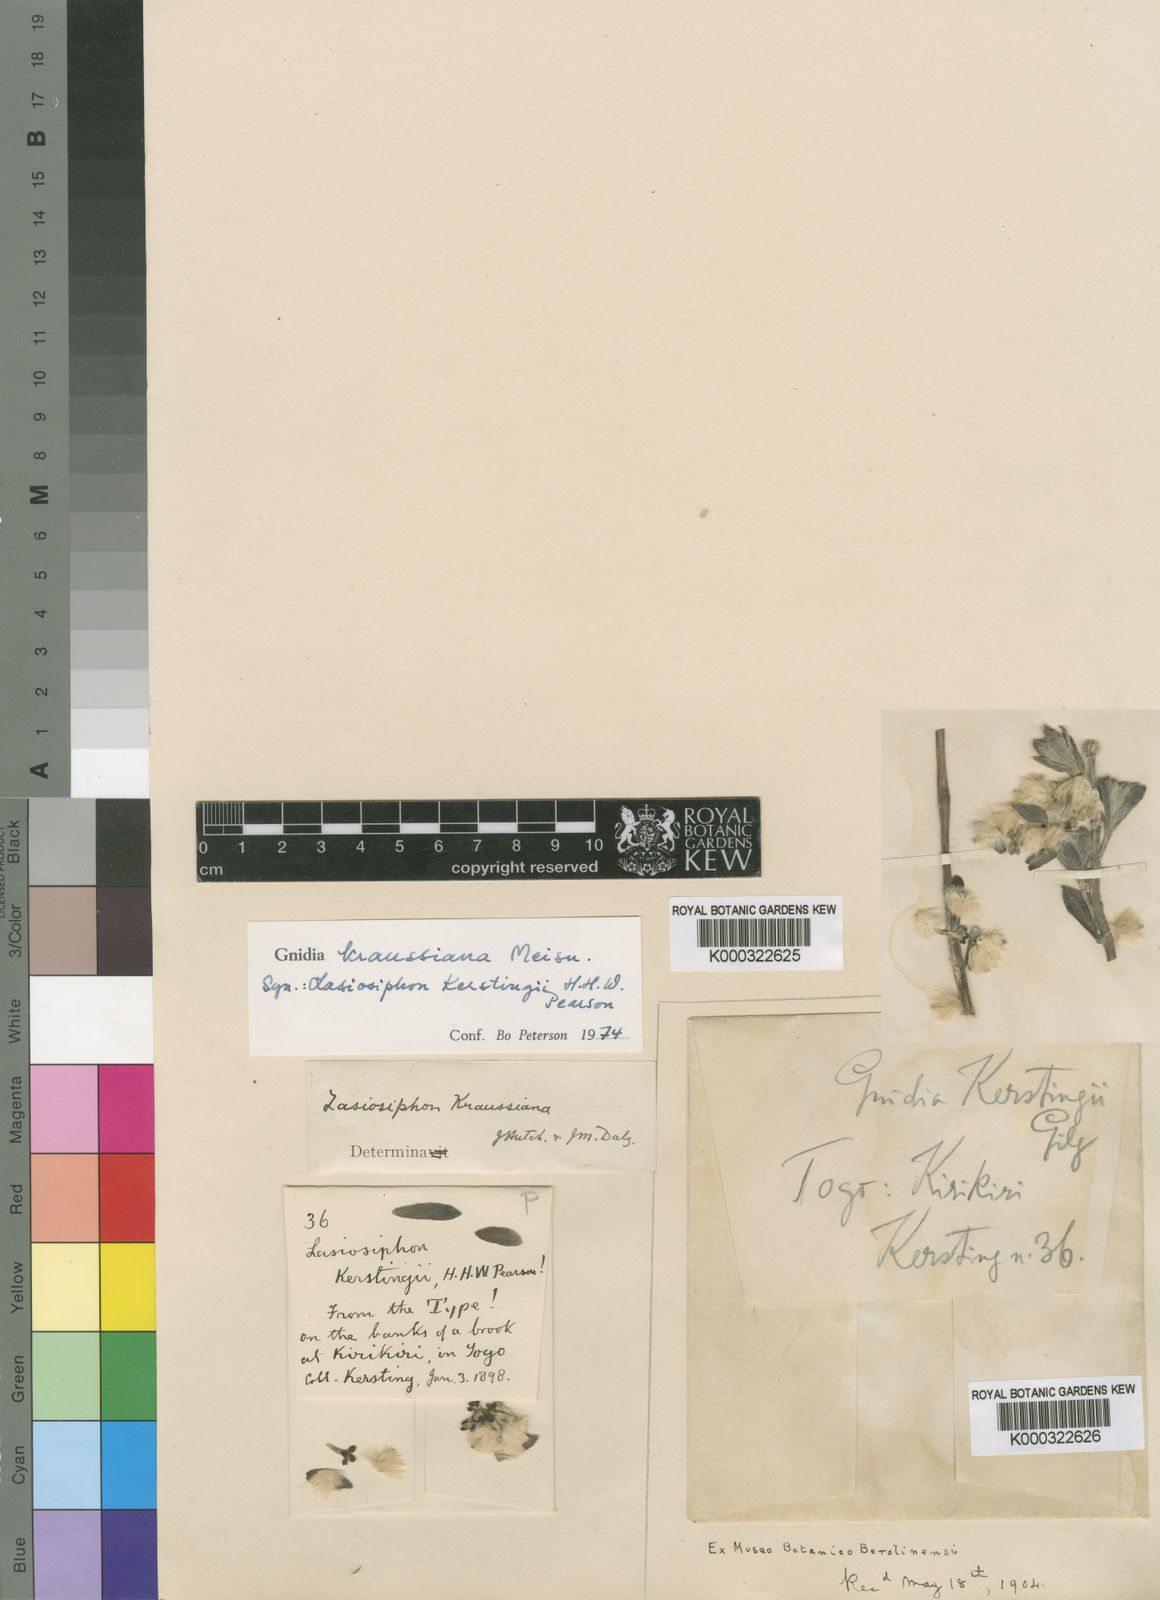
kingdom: Plantae
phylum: Tracheophyta
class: Magnoliopsida
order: Malvales
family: Thymelaeaceae
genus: Gnidia
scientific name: Gnidia kraussiana
